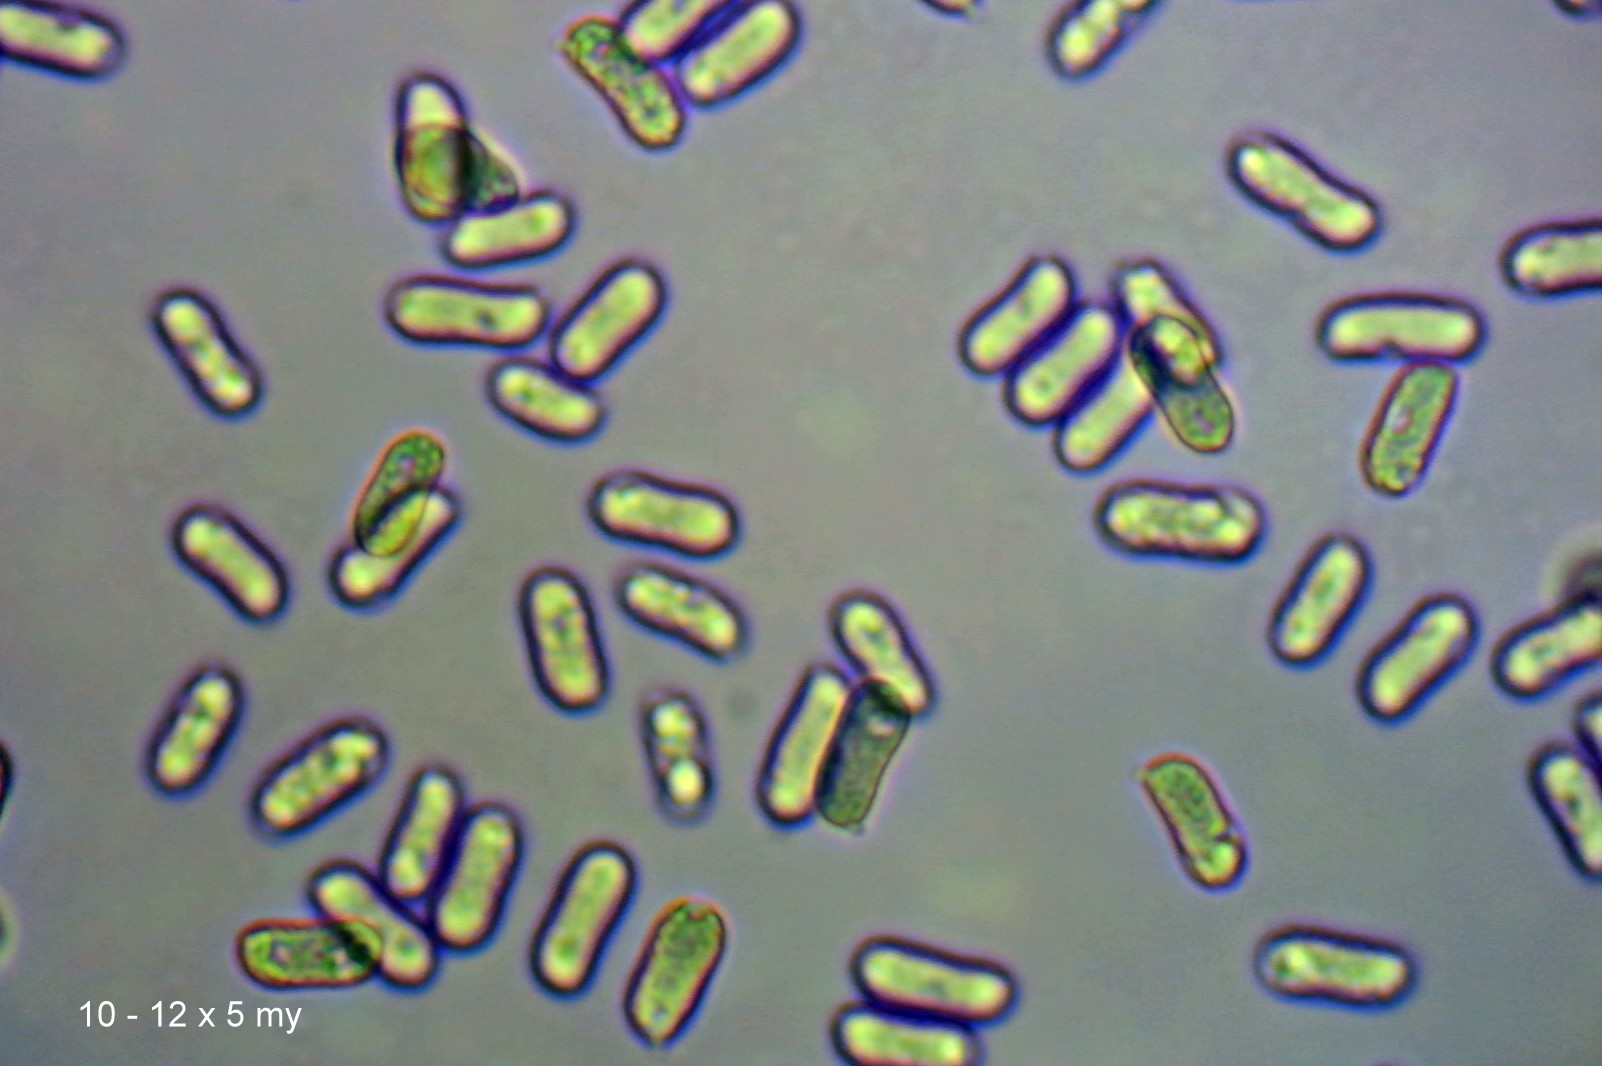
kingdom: Fungi
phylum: Basidiomycota
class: Agaricomycetes
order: Agaricales
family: Hygrophoraceae
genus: Hygrocybe
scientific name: Hygrocybe conicoides
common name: klit-vokshat
